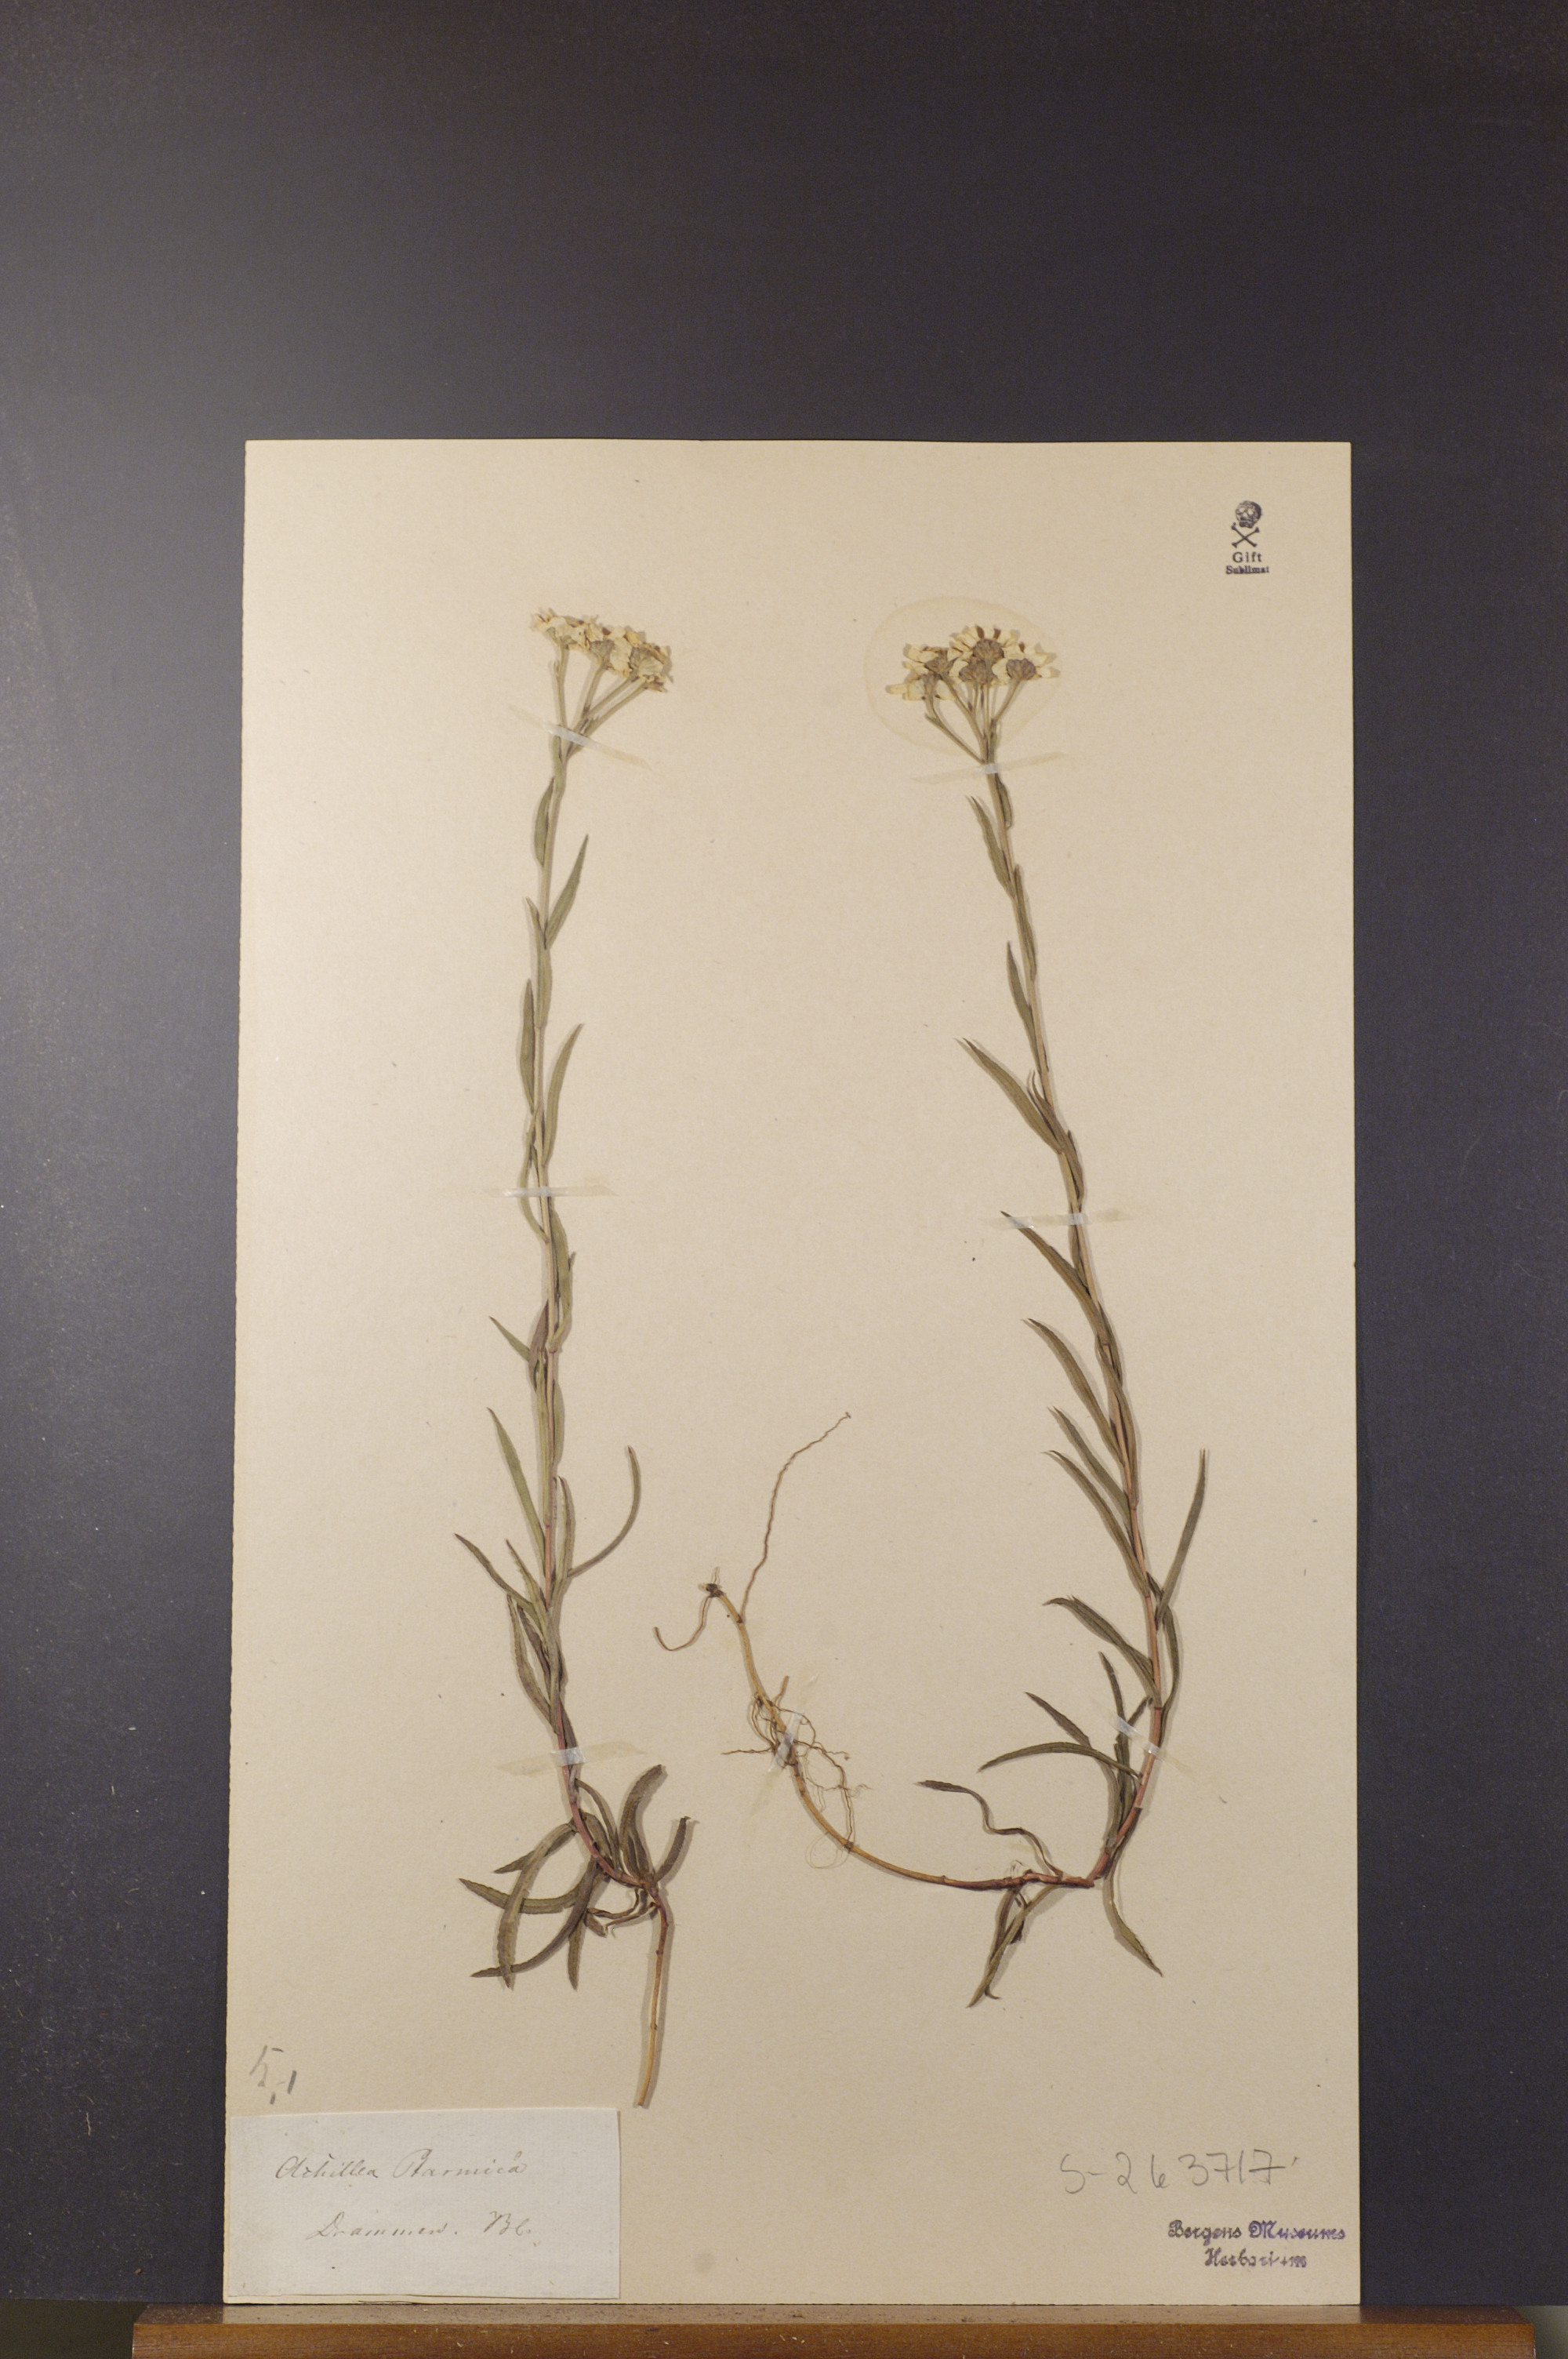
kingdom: Plantae
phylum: Tracheophyta
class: Magnoliopsida
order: Asterales
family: Asteraceae
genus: Achillea
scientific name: Achillea ptarmica
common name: Sneezeweed
